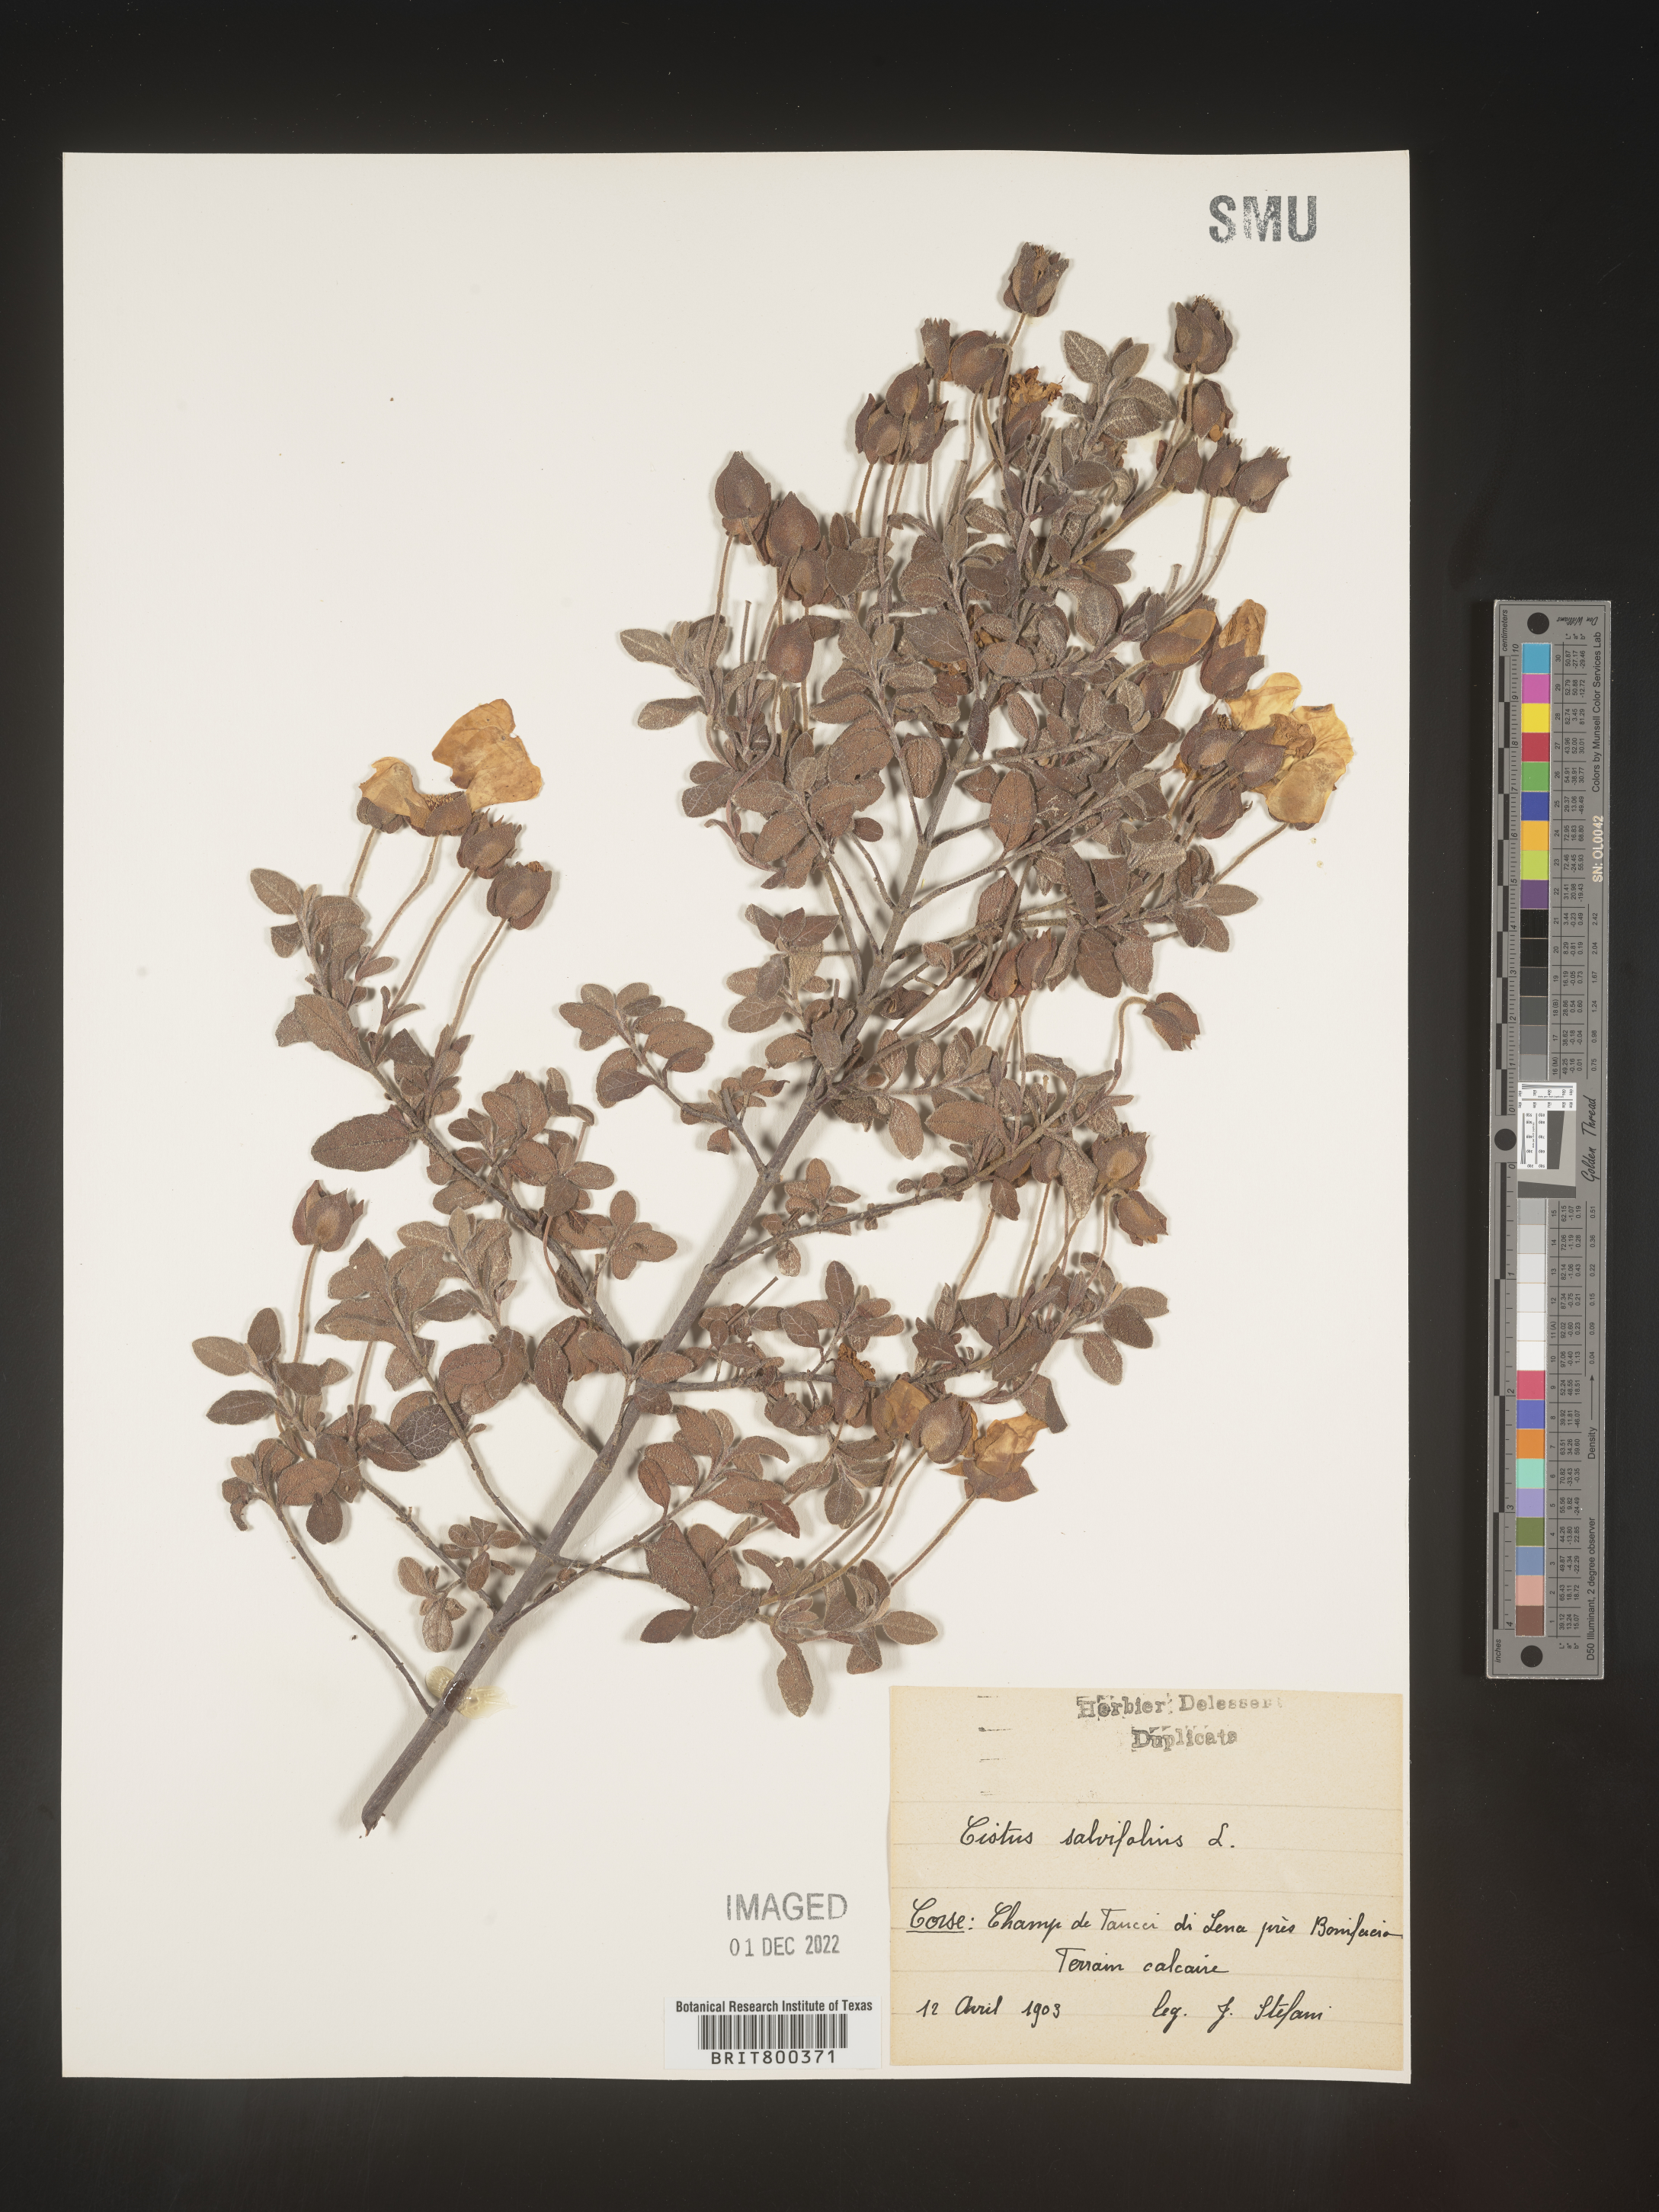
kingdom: Plantae
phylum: Tracheophyta
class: Magnoliopsida
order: Malvales
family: Cistaceae
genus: Cistus
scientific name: Cistus
